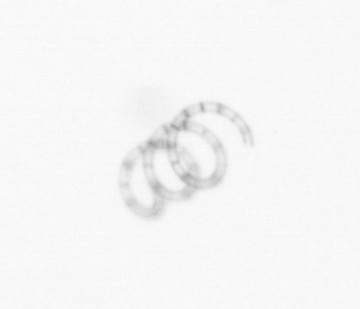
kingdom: Chromista
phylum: Ochrophyta
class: Bacillariophyceae
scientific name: Bacillariophyceae
